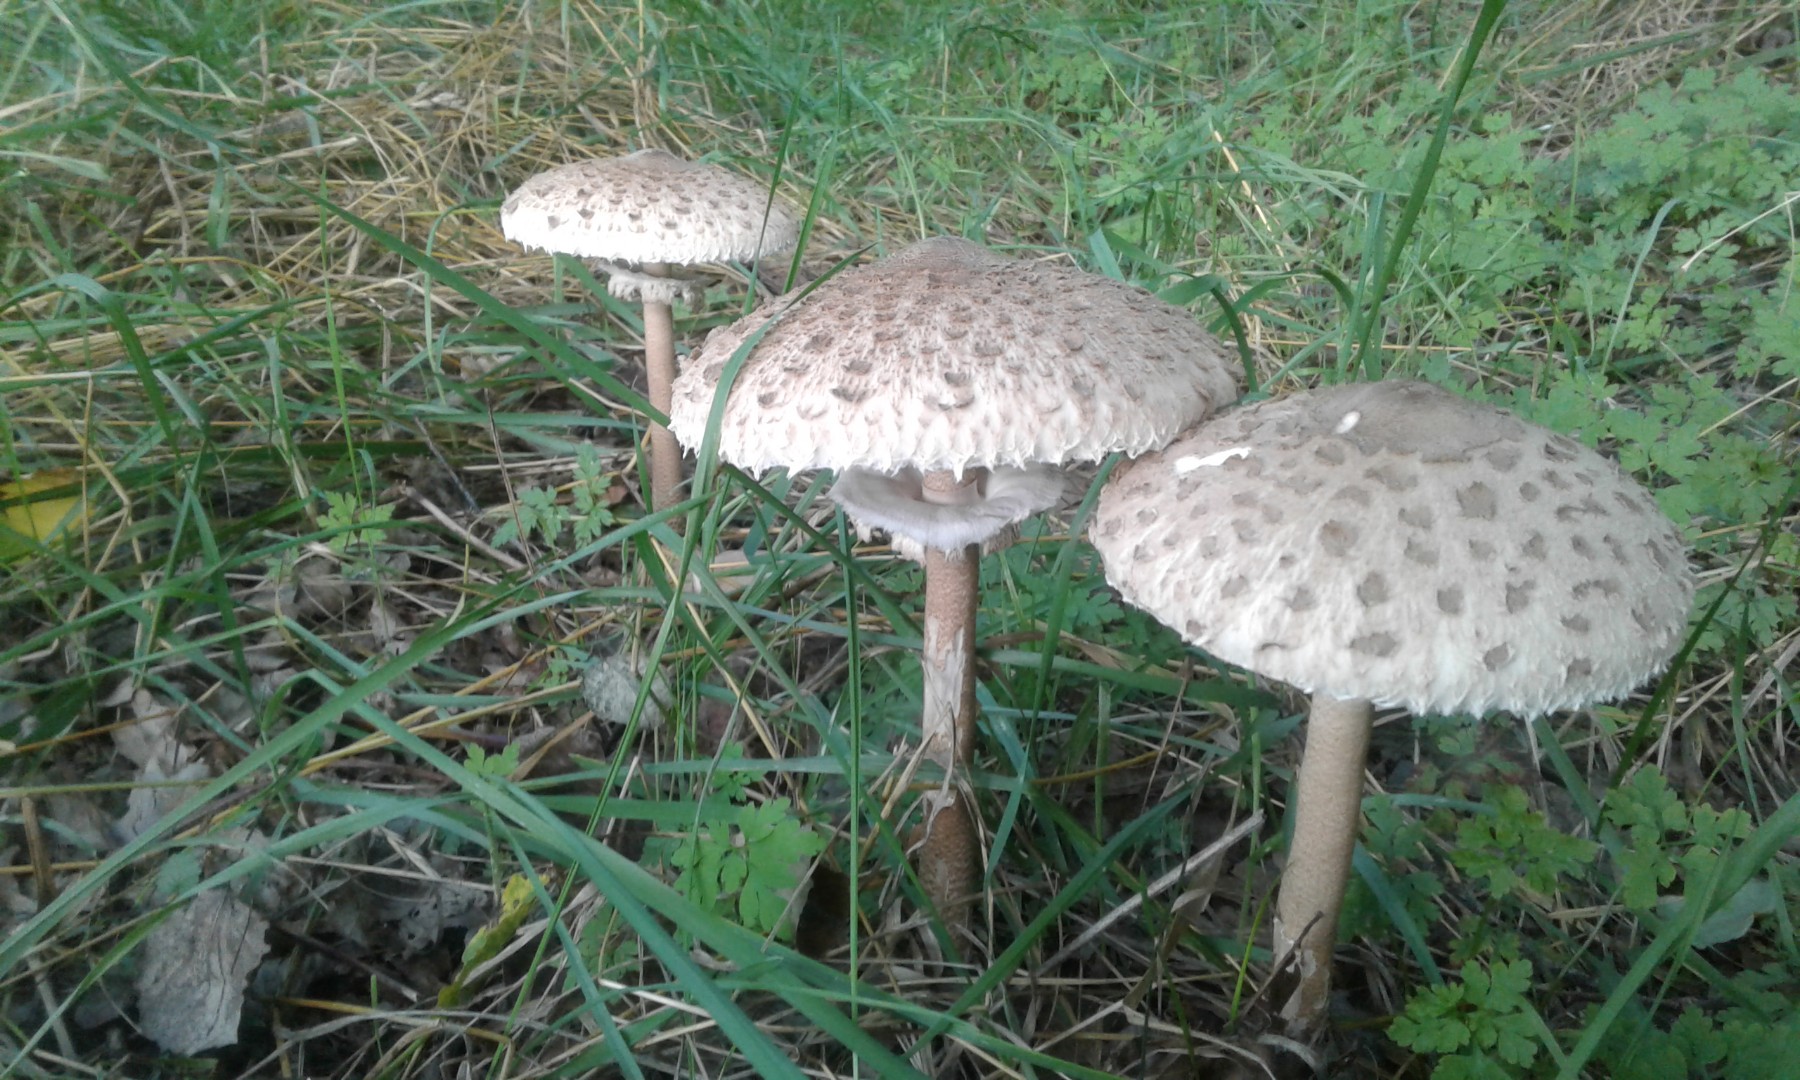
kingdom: Fungi
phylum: Basidiomycota
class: Agaricomycetes
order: Agaricales
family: Agaricaceae
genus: Macrolepiota
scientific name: Macrolepiota procera
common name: stor kæmpeparasolhat
